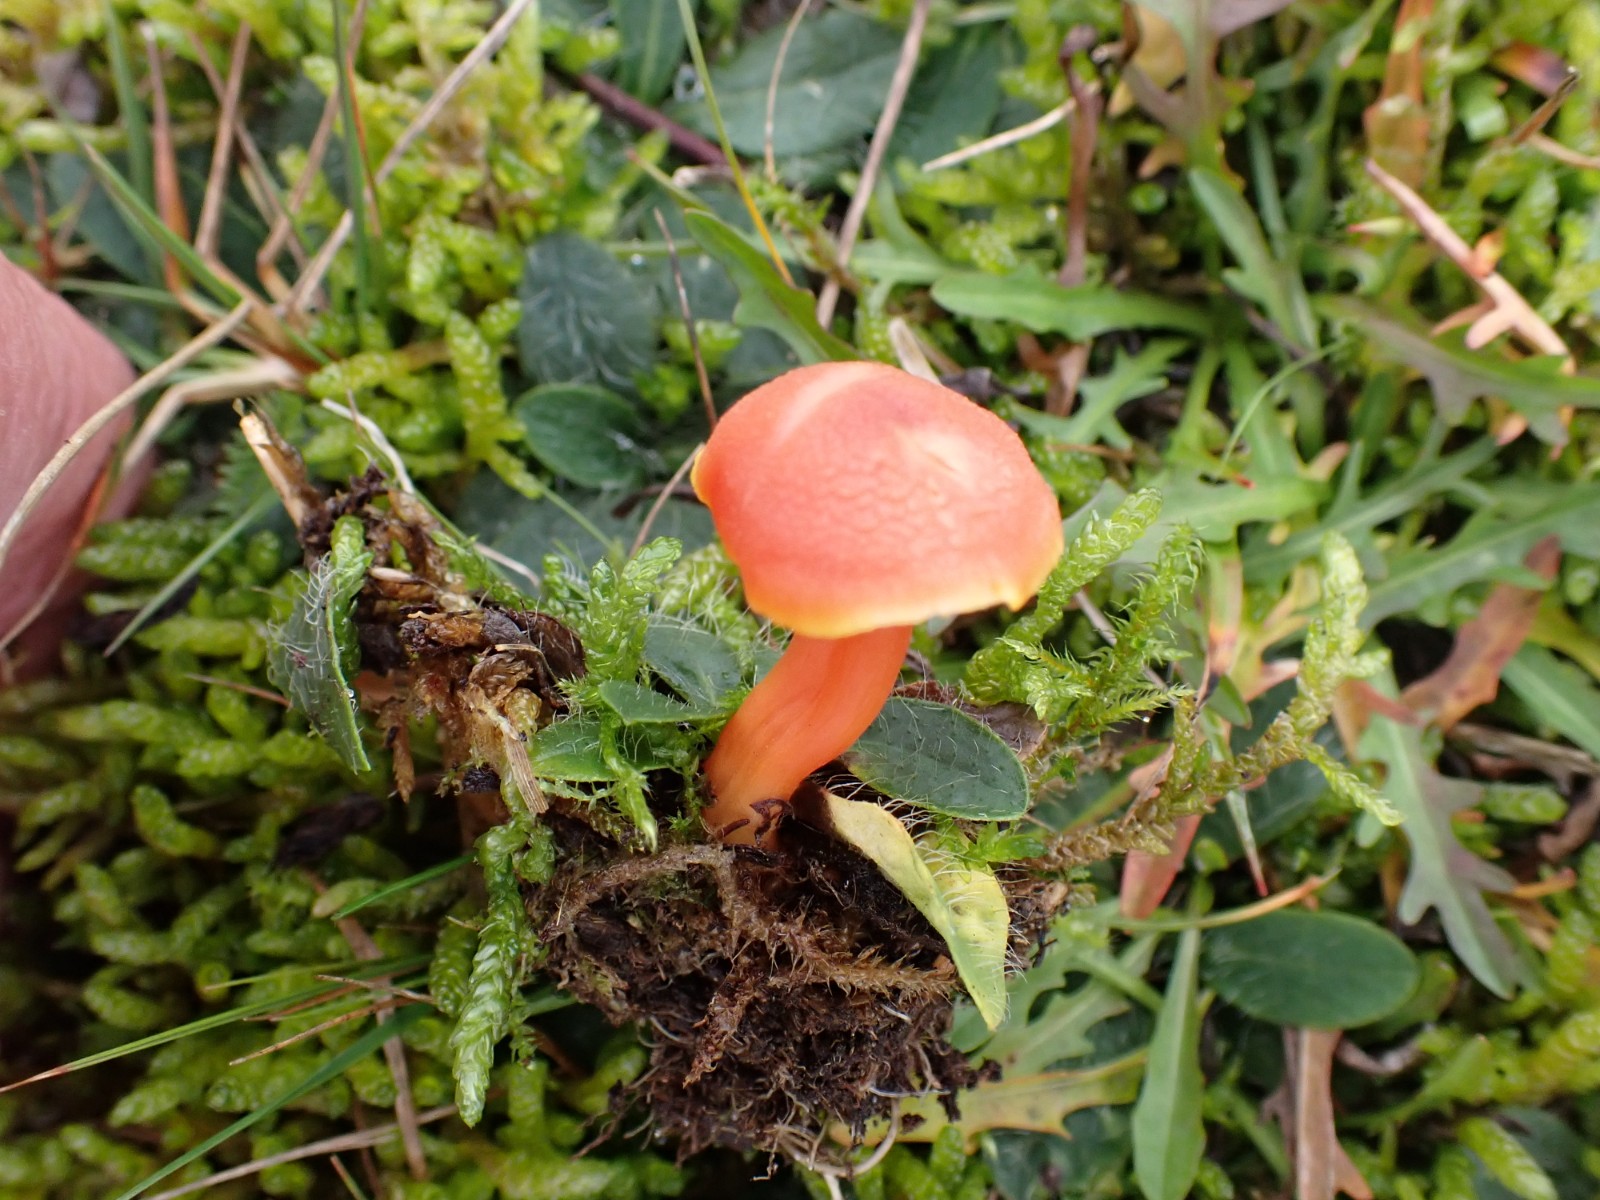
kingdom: Fungi
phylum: Basidiomycota
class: Agaricomycetes
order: Agaricales
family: Hygrophoraceae
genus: Hygrocybe
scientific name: Hygrocybe miniata
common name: mønje-vokshat
